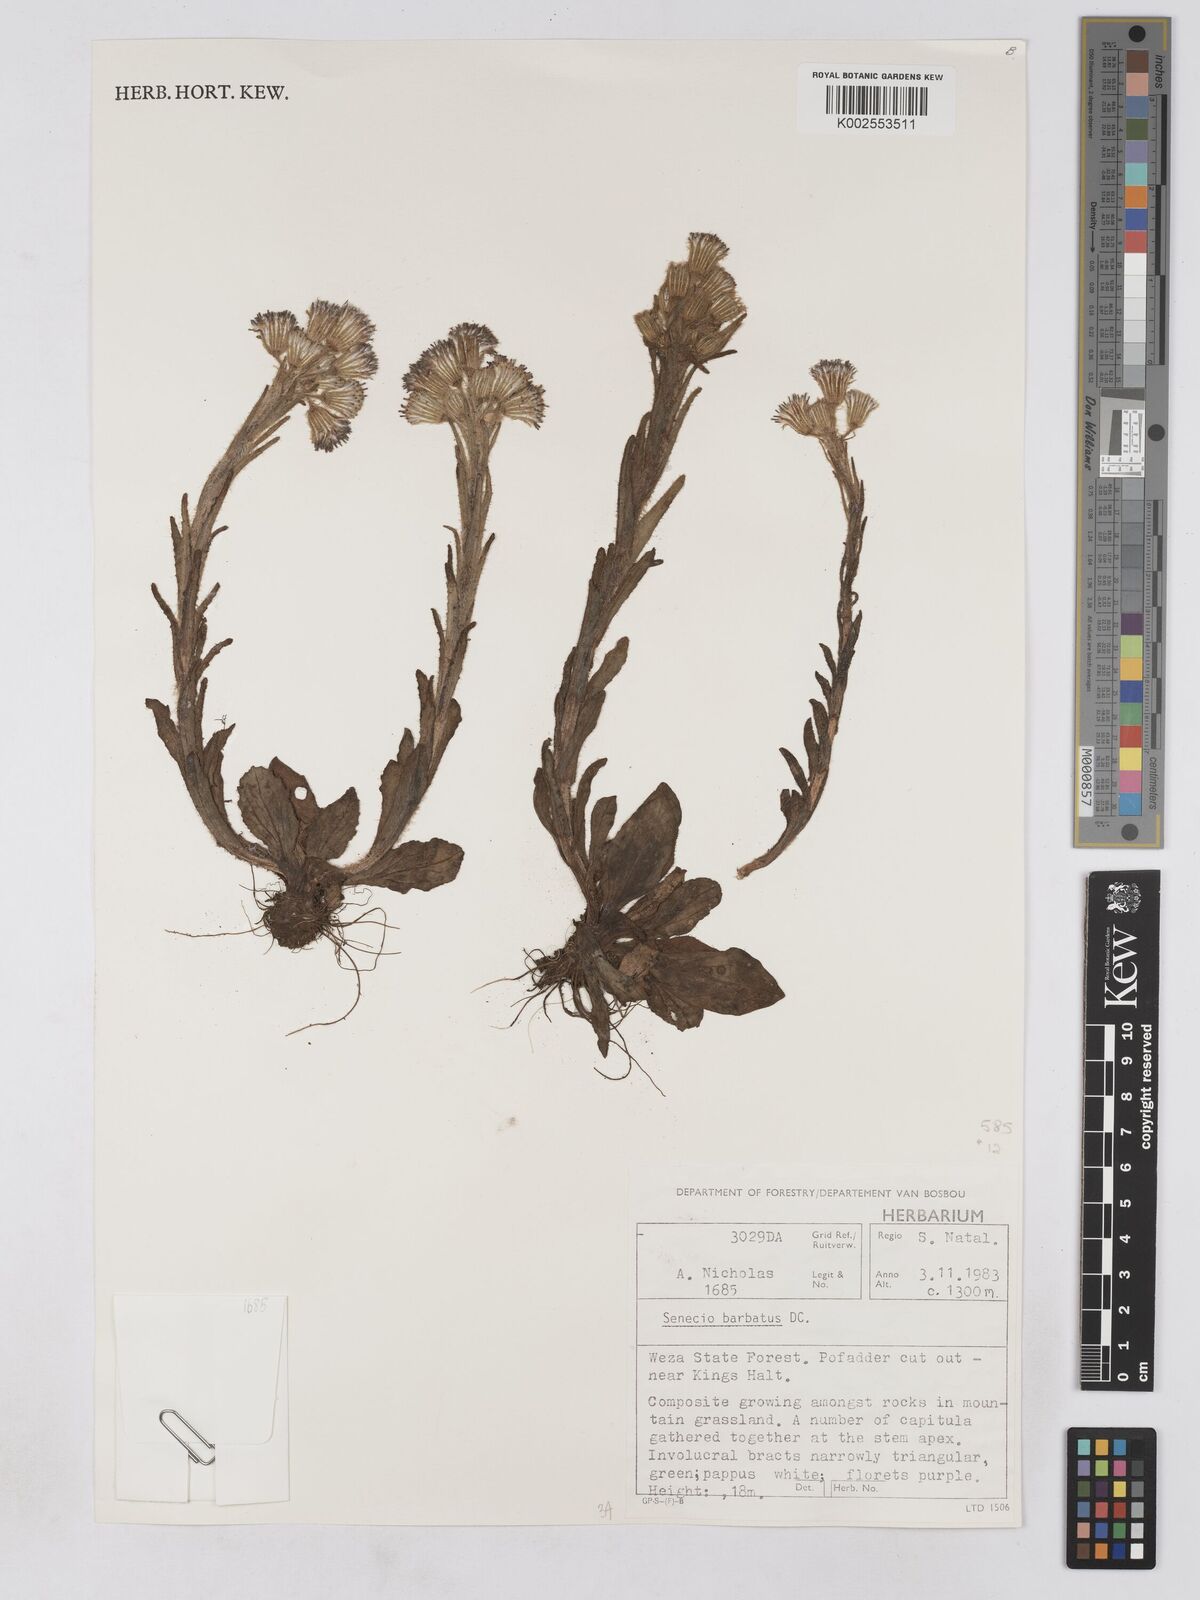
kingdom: Plantae
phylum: Tracheophyta
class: Magnoliopsida
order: Asterales
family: Asteraceae
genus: Senecio
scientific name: Senecio barbatus
